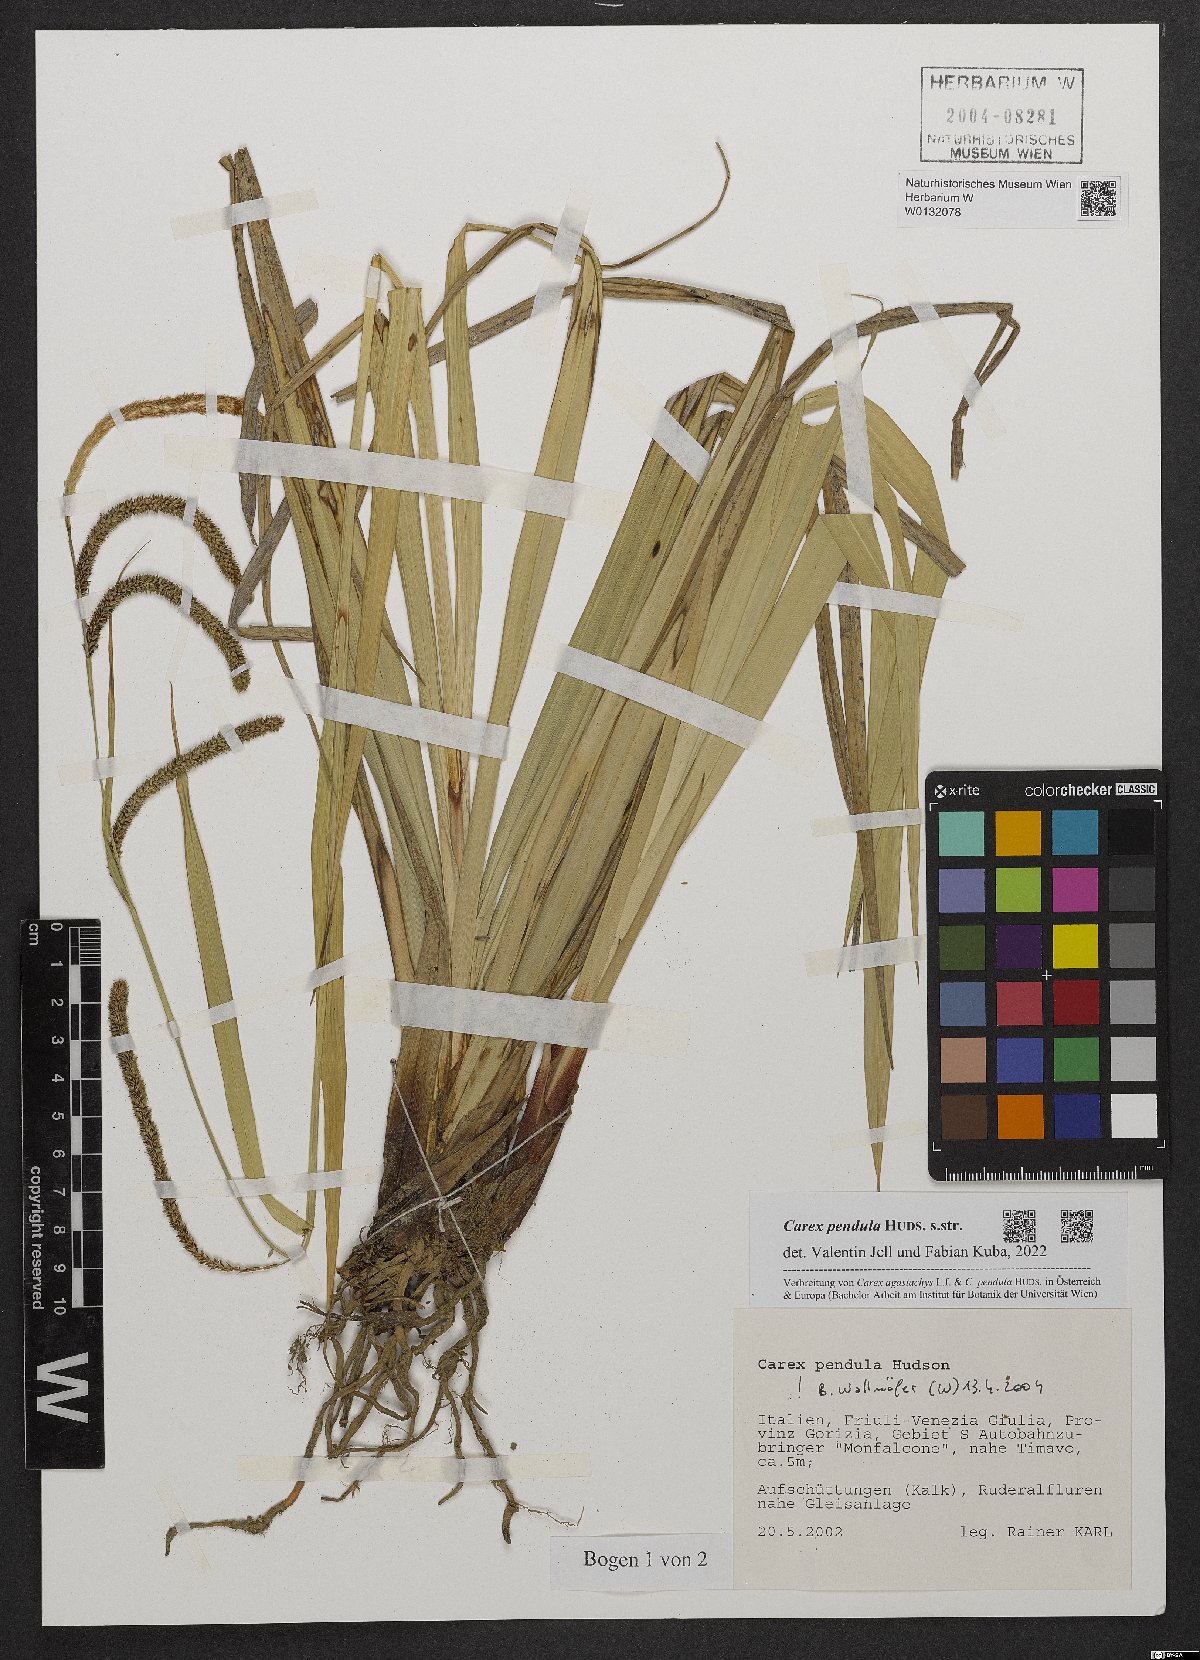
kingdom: Plantae
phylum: Tracheophyta
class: Liliopsida
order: Poales
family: Cyperaceae
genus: Carex
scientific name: Carex pendula
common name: Pendulous sedge
